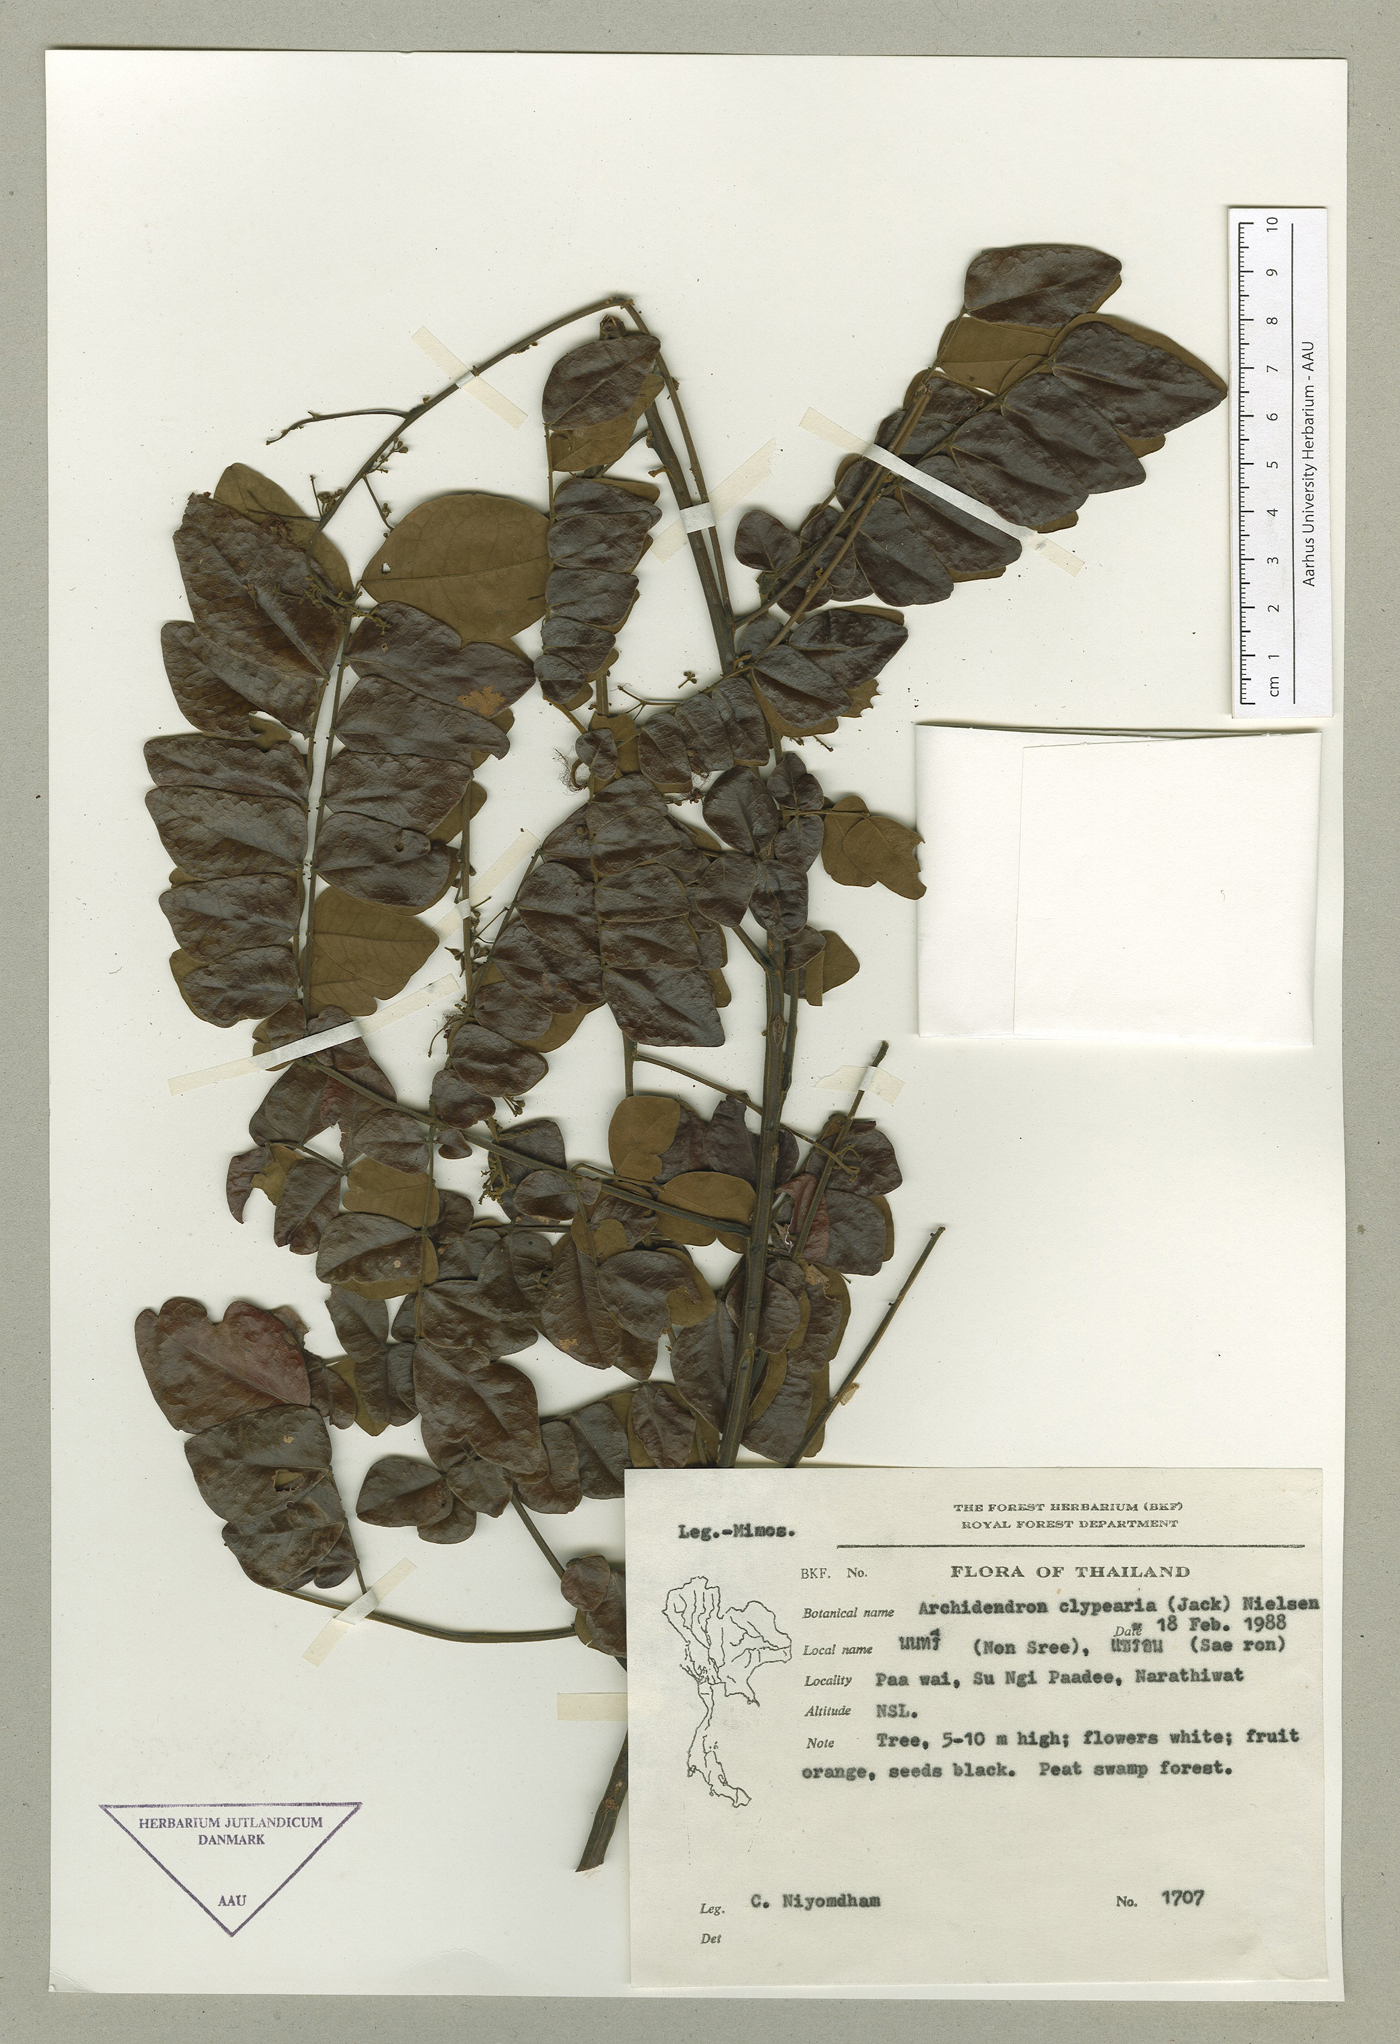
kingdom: Plantae
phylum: Tracheophyta
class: Magnoliopsida
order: Fabales
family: Fabaceae
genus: Archidendron
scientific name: Archidendron clypearia
